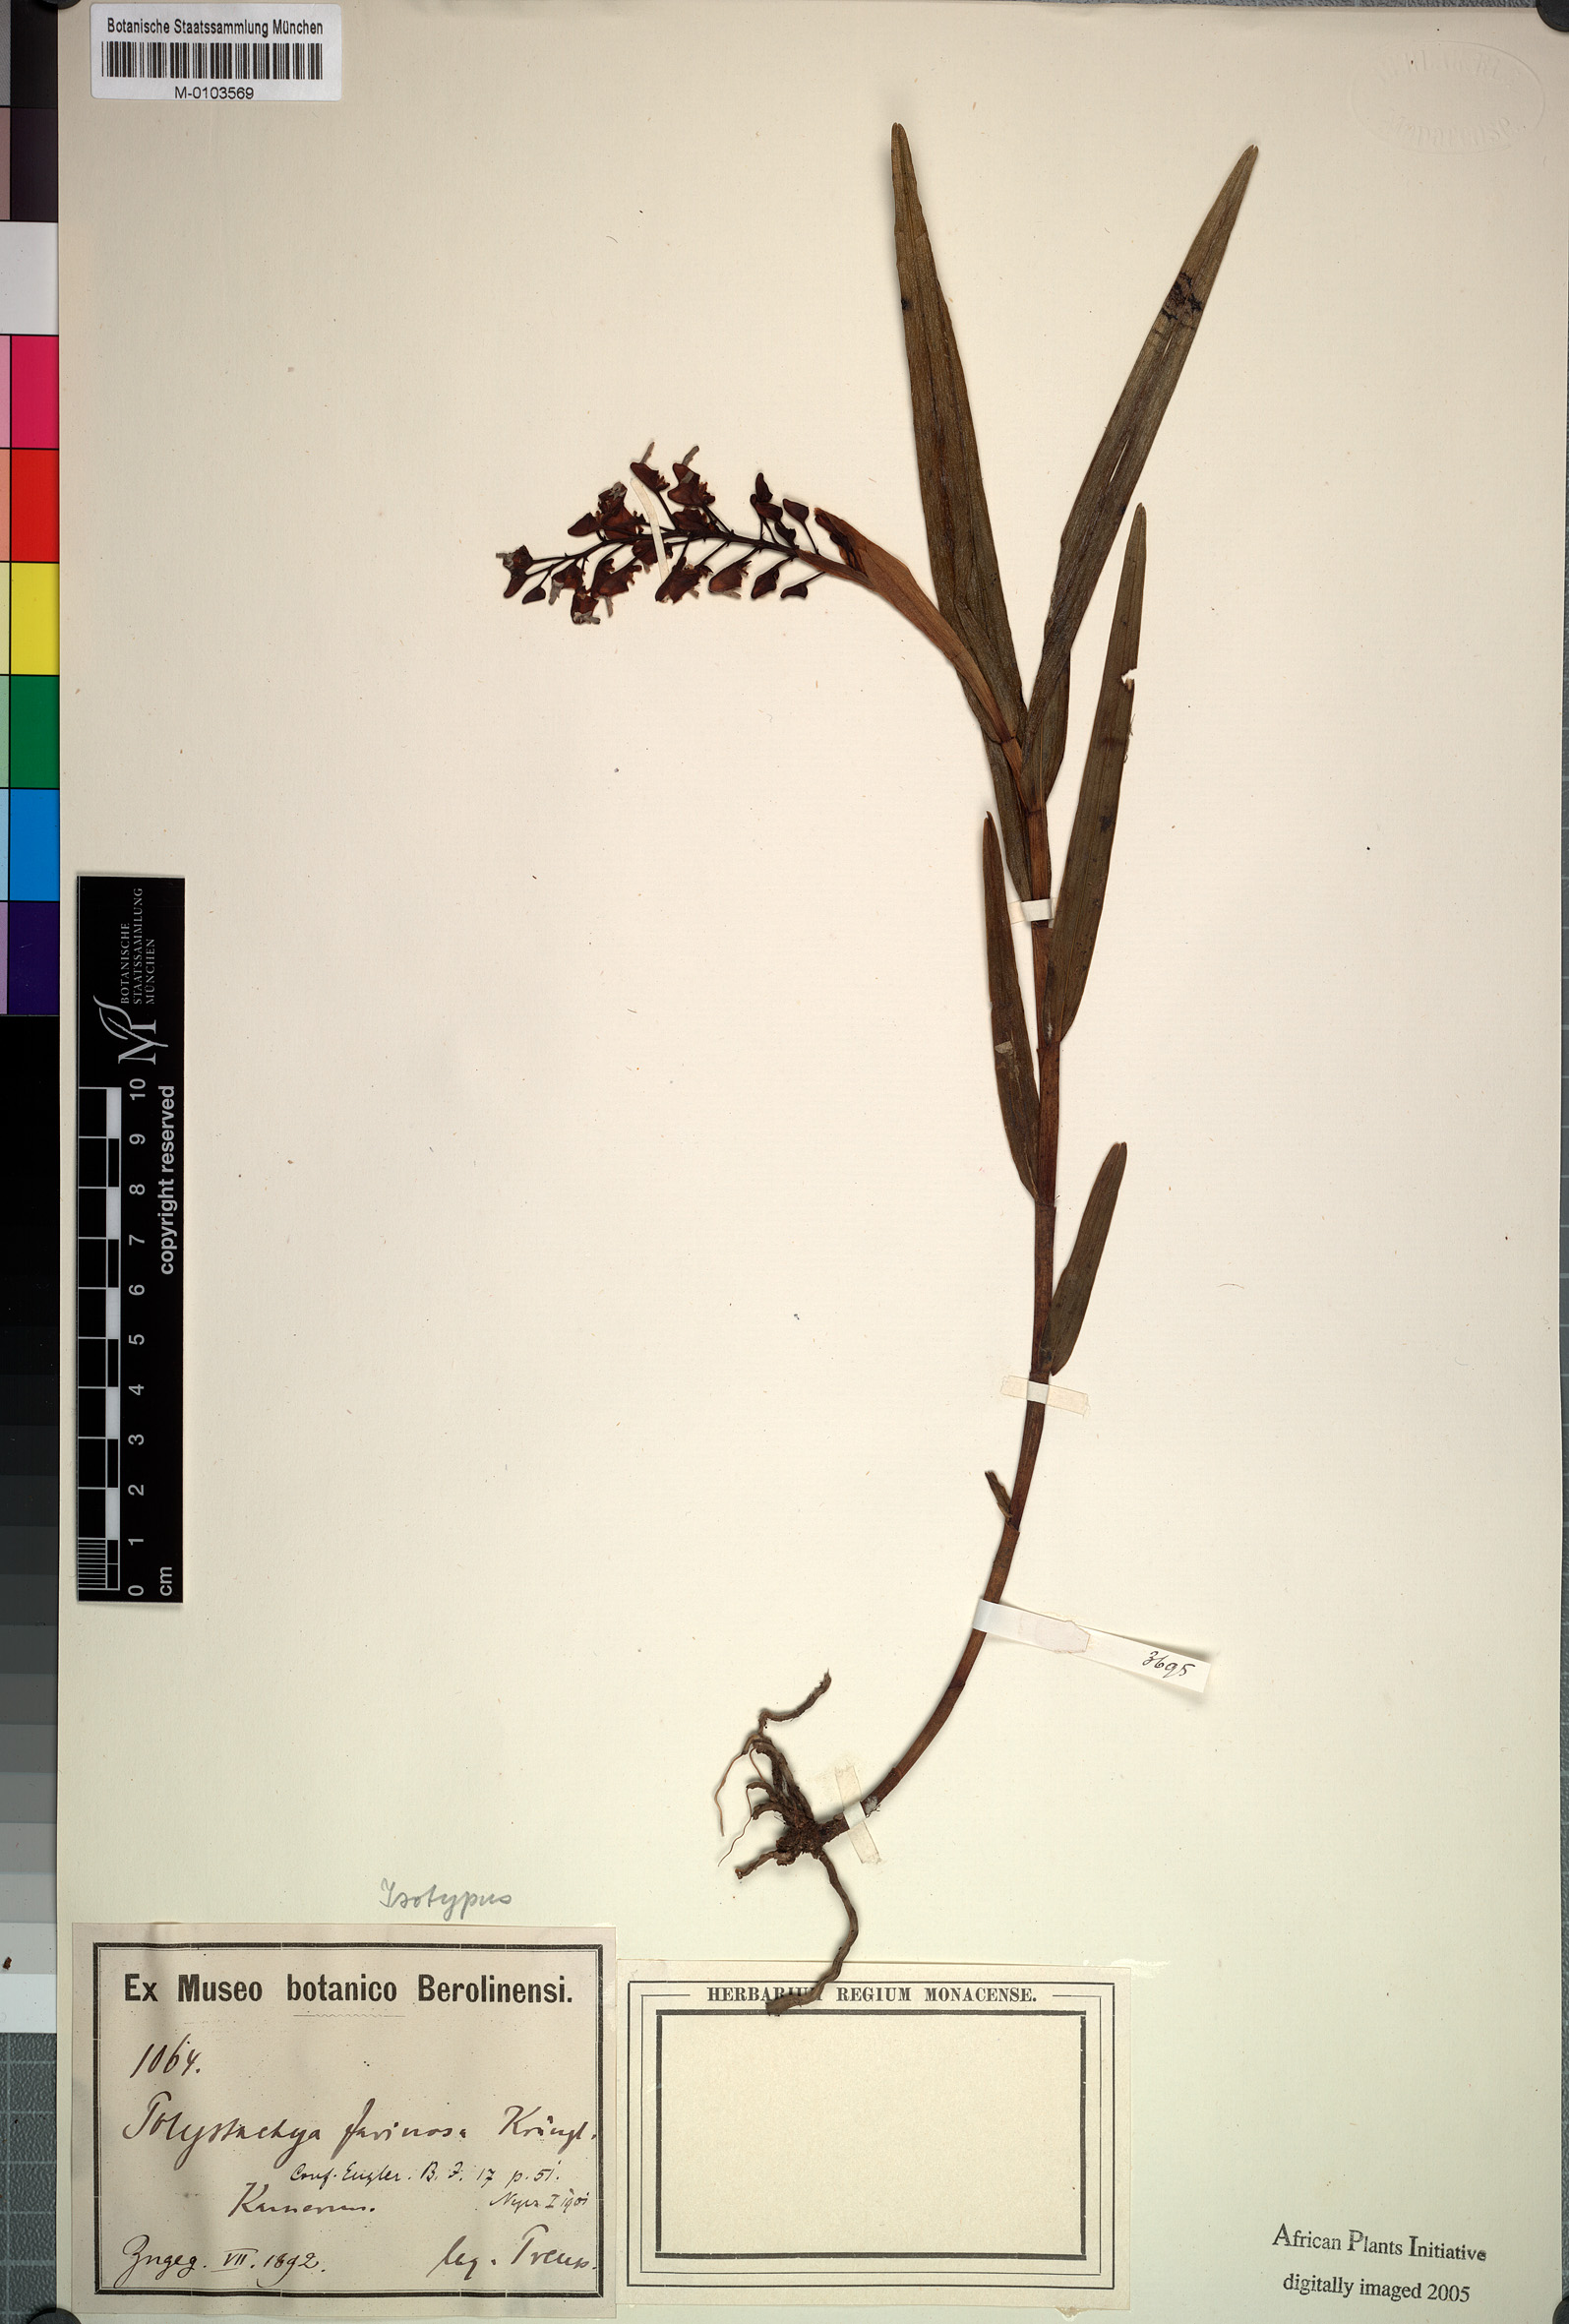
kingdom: Plantae
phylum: Tracheophyta
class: Liliopsida
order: Asparagales
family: Orchidaceae
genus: Polystachya
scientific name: Polystachya bifida
